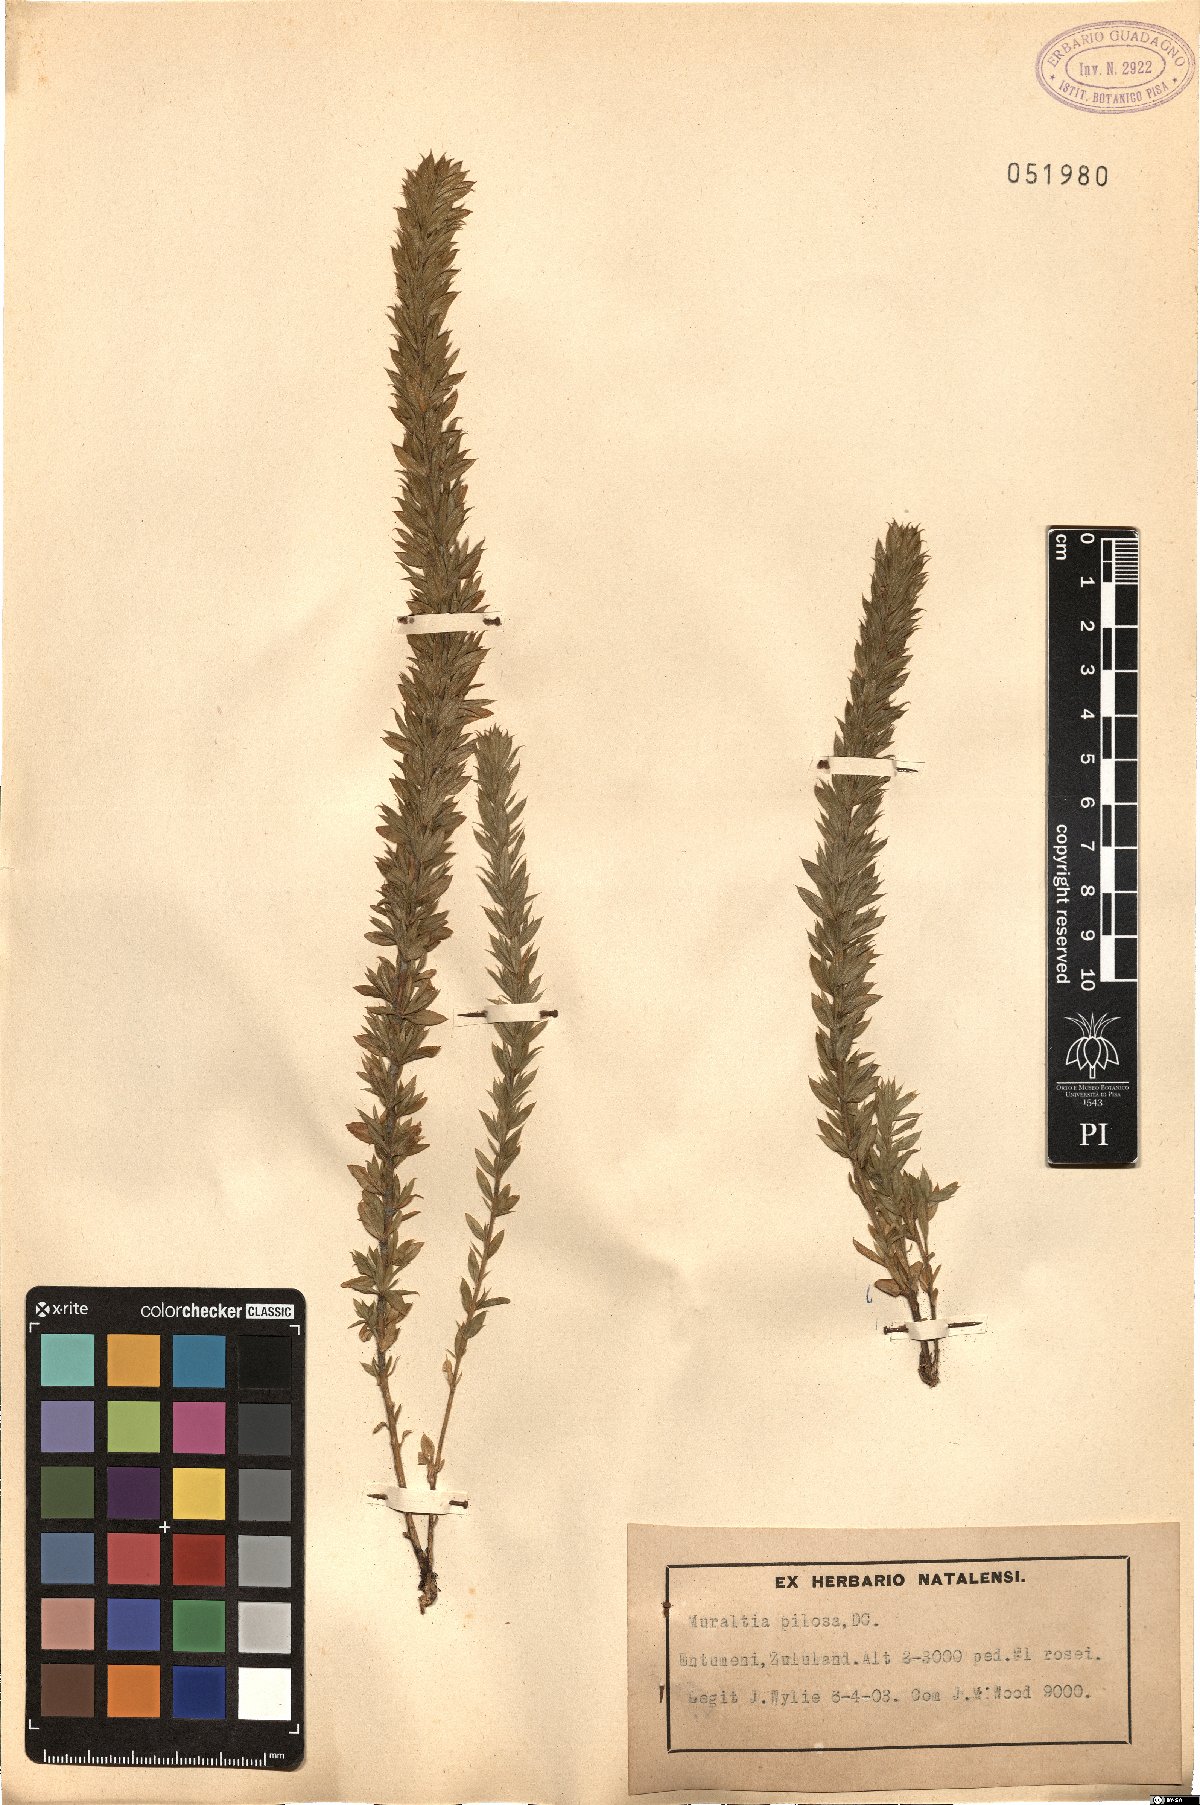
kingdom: Plantae
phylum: Tracheophyta
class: Magnoliopsida
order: Fabales
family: Polygalaceae
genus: Muraltia
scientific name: Muraltia lancifolia
